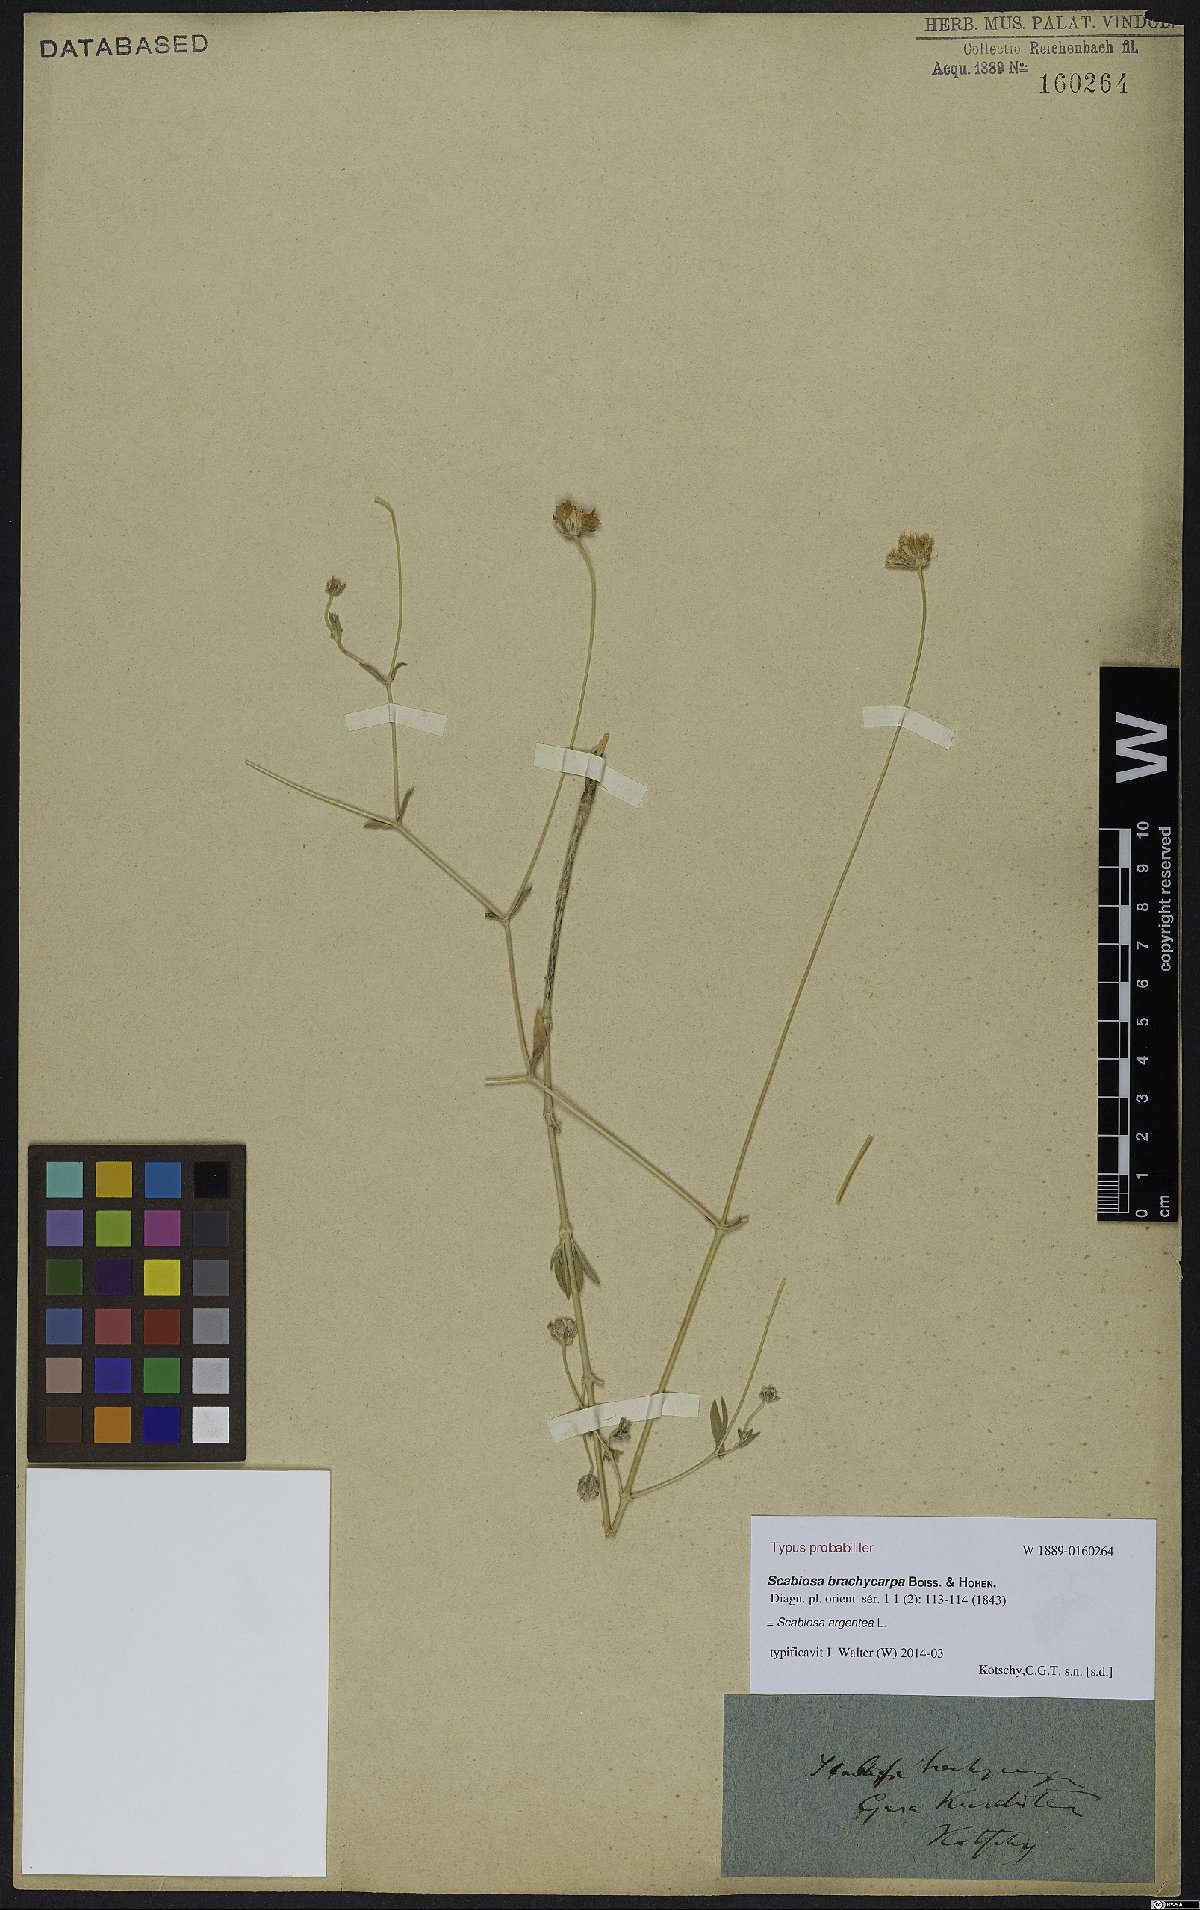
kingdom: Plantae
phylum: Tracheophyta
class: Magnoliopsida
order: Dipsacales
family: Caprifoliaceae
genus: Lomelosia
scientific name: Lomelosia argentea
